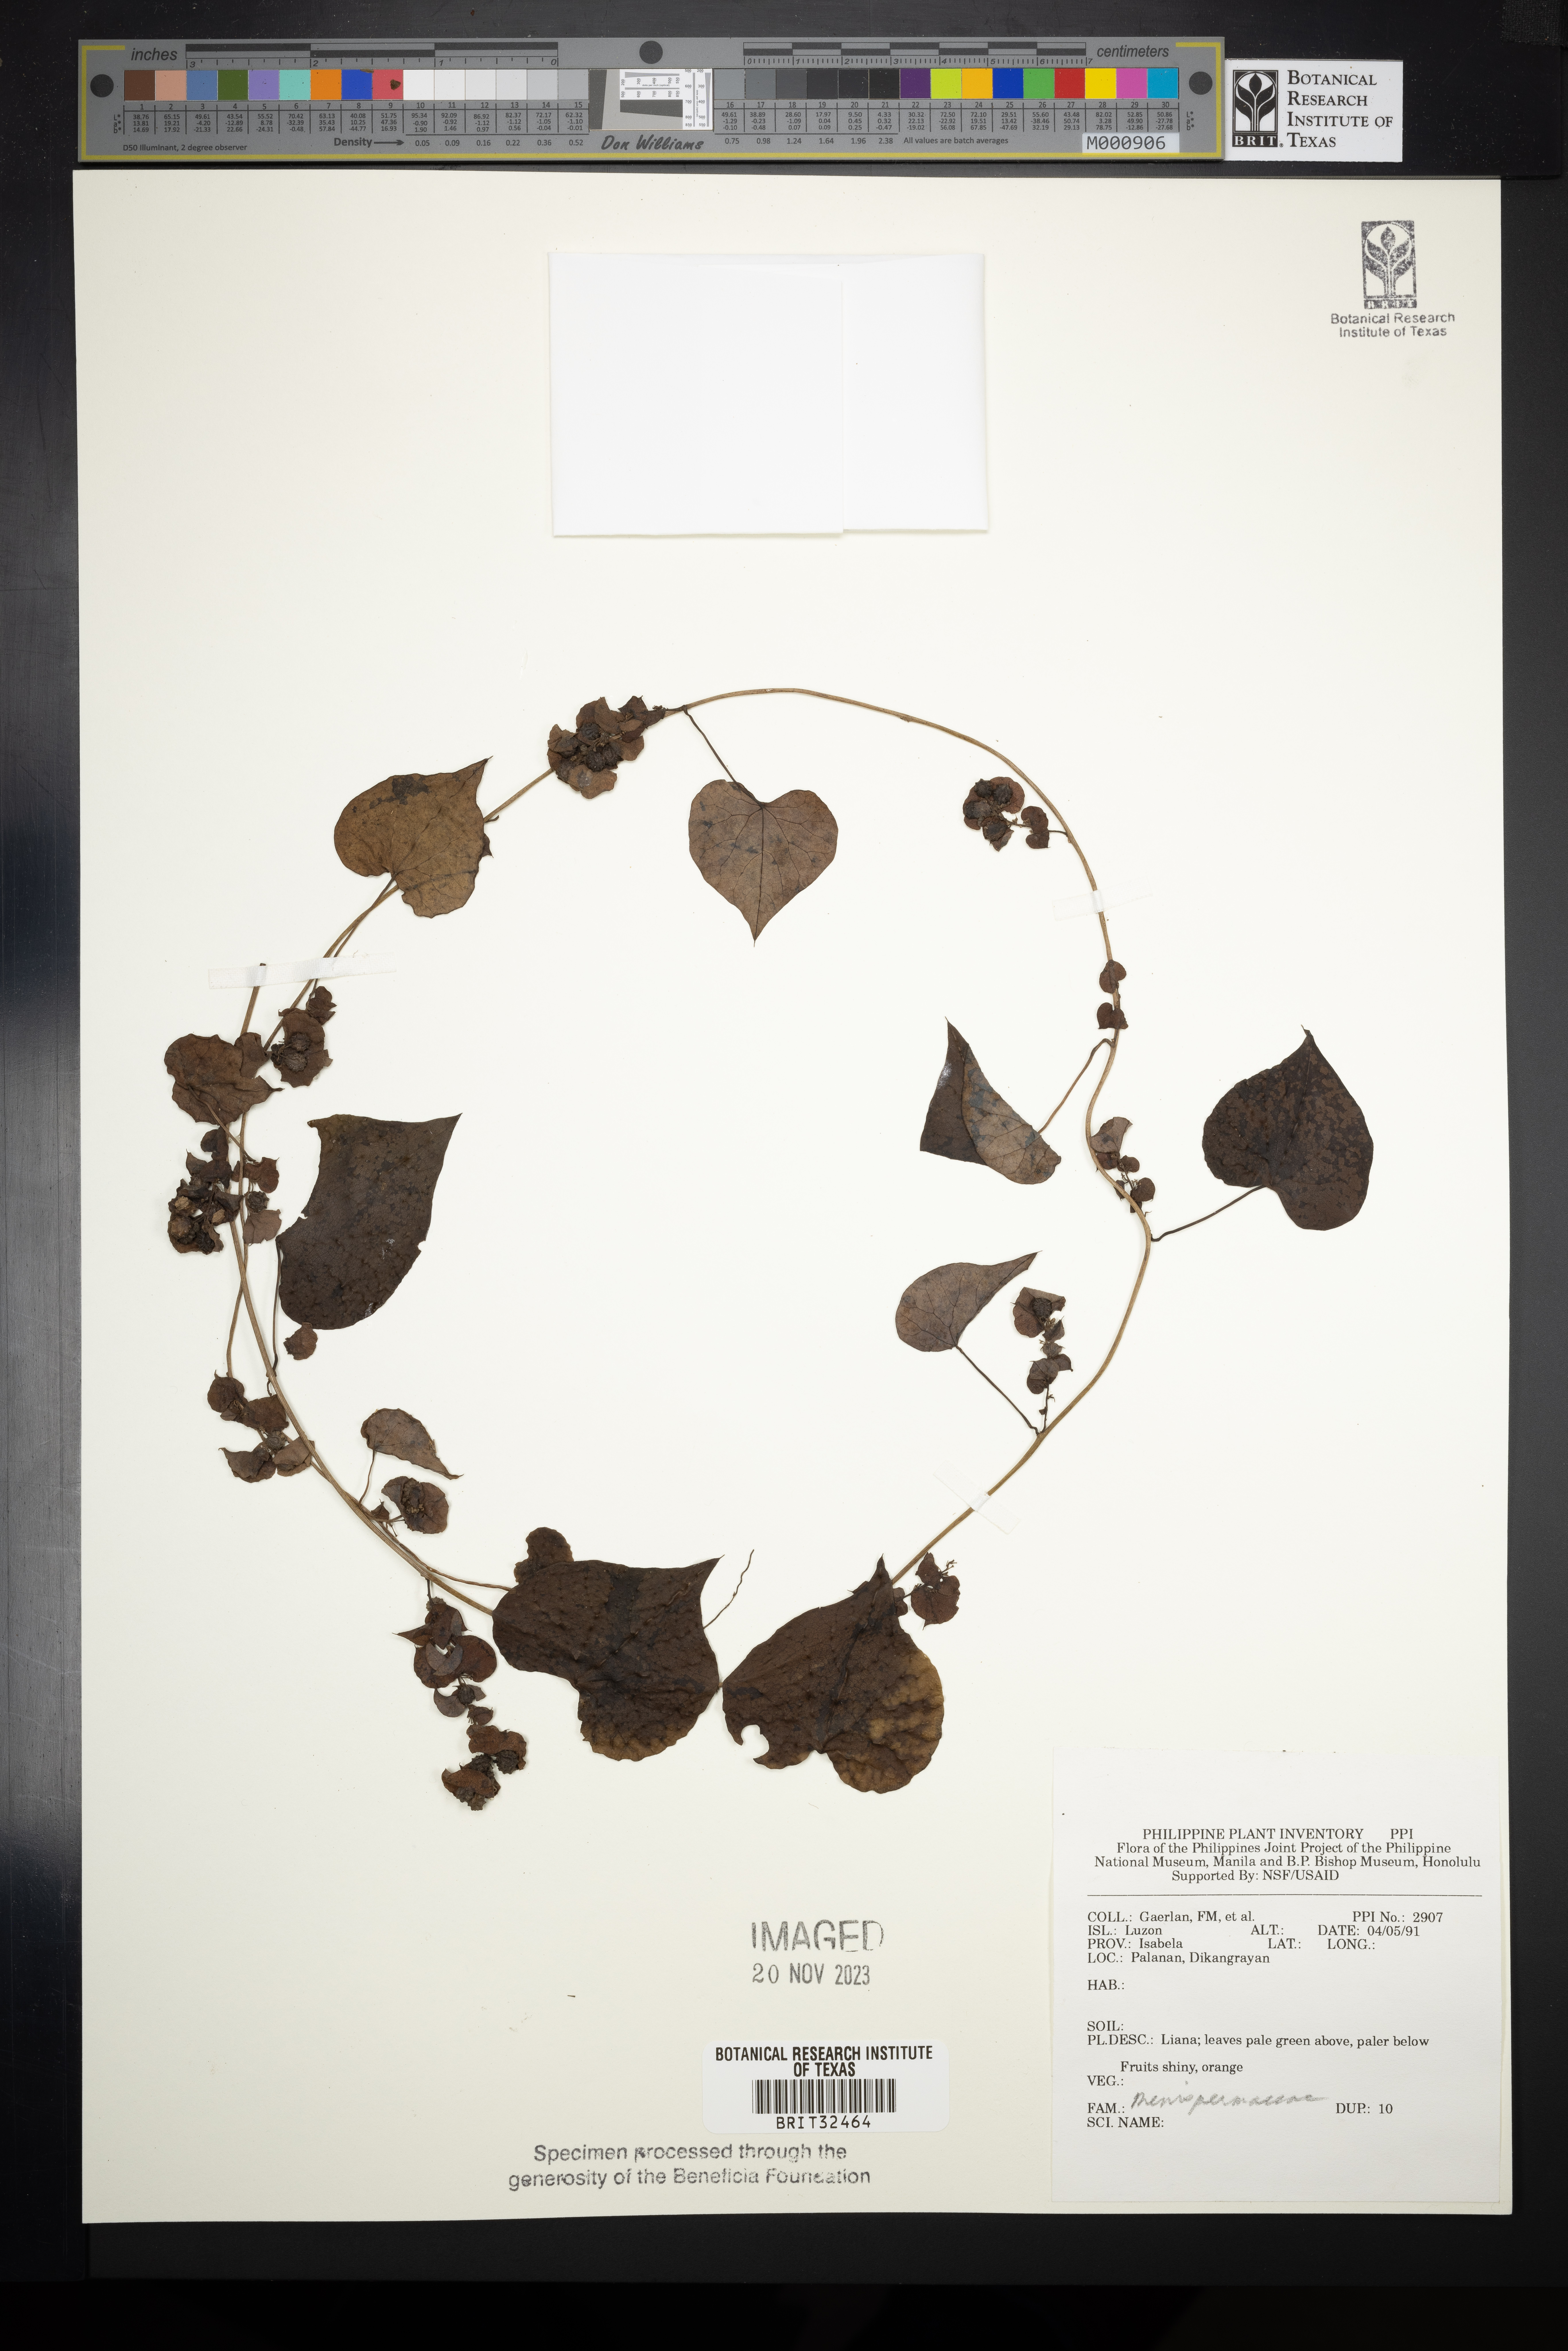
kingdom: Plantae
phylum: Tracheophyta
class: Magnoliopsida
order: Ranunculales
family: Menispermaceae
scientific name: Menispermaceae
